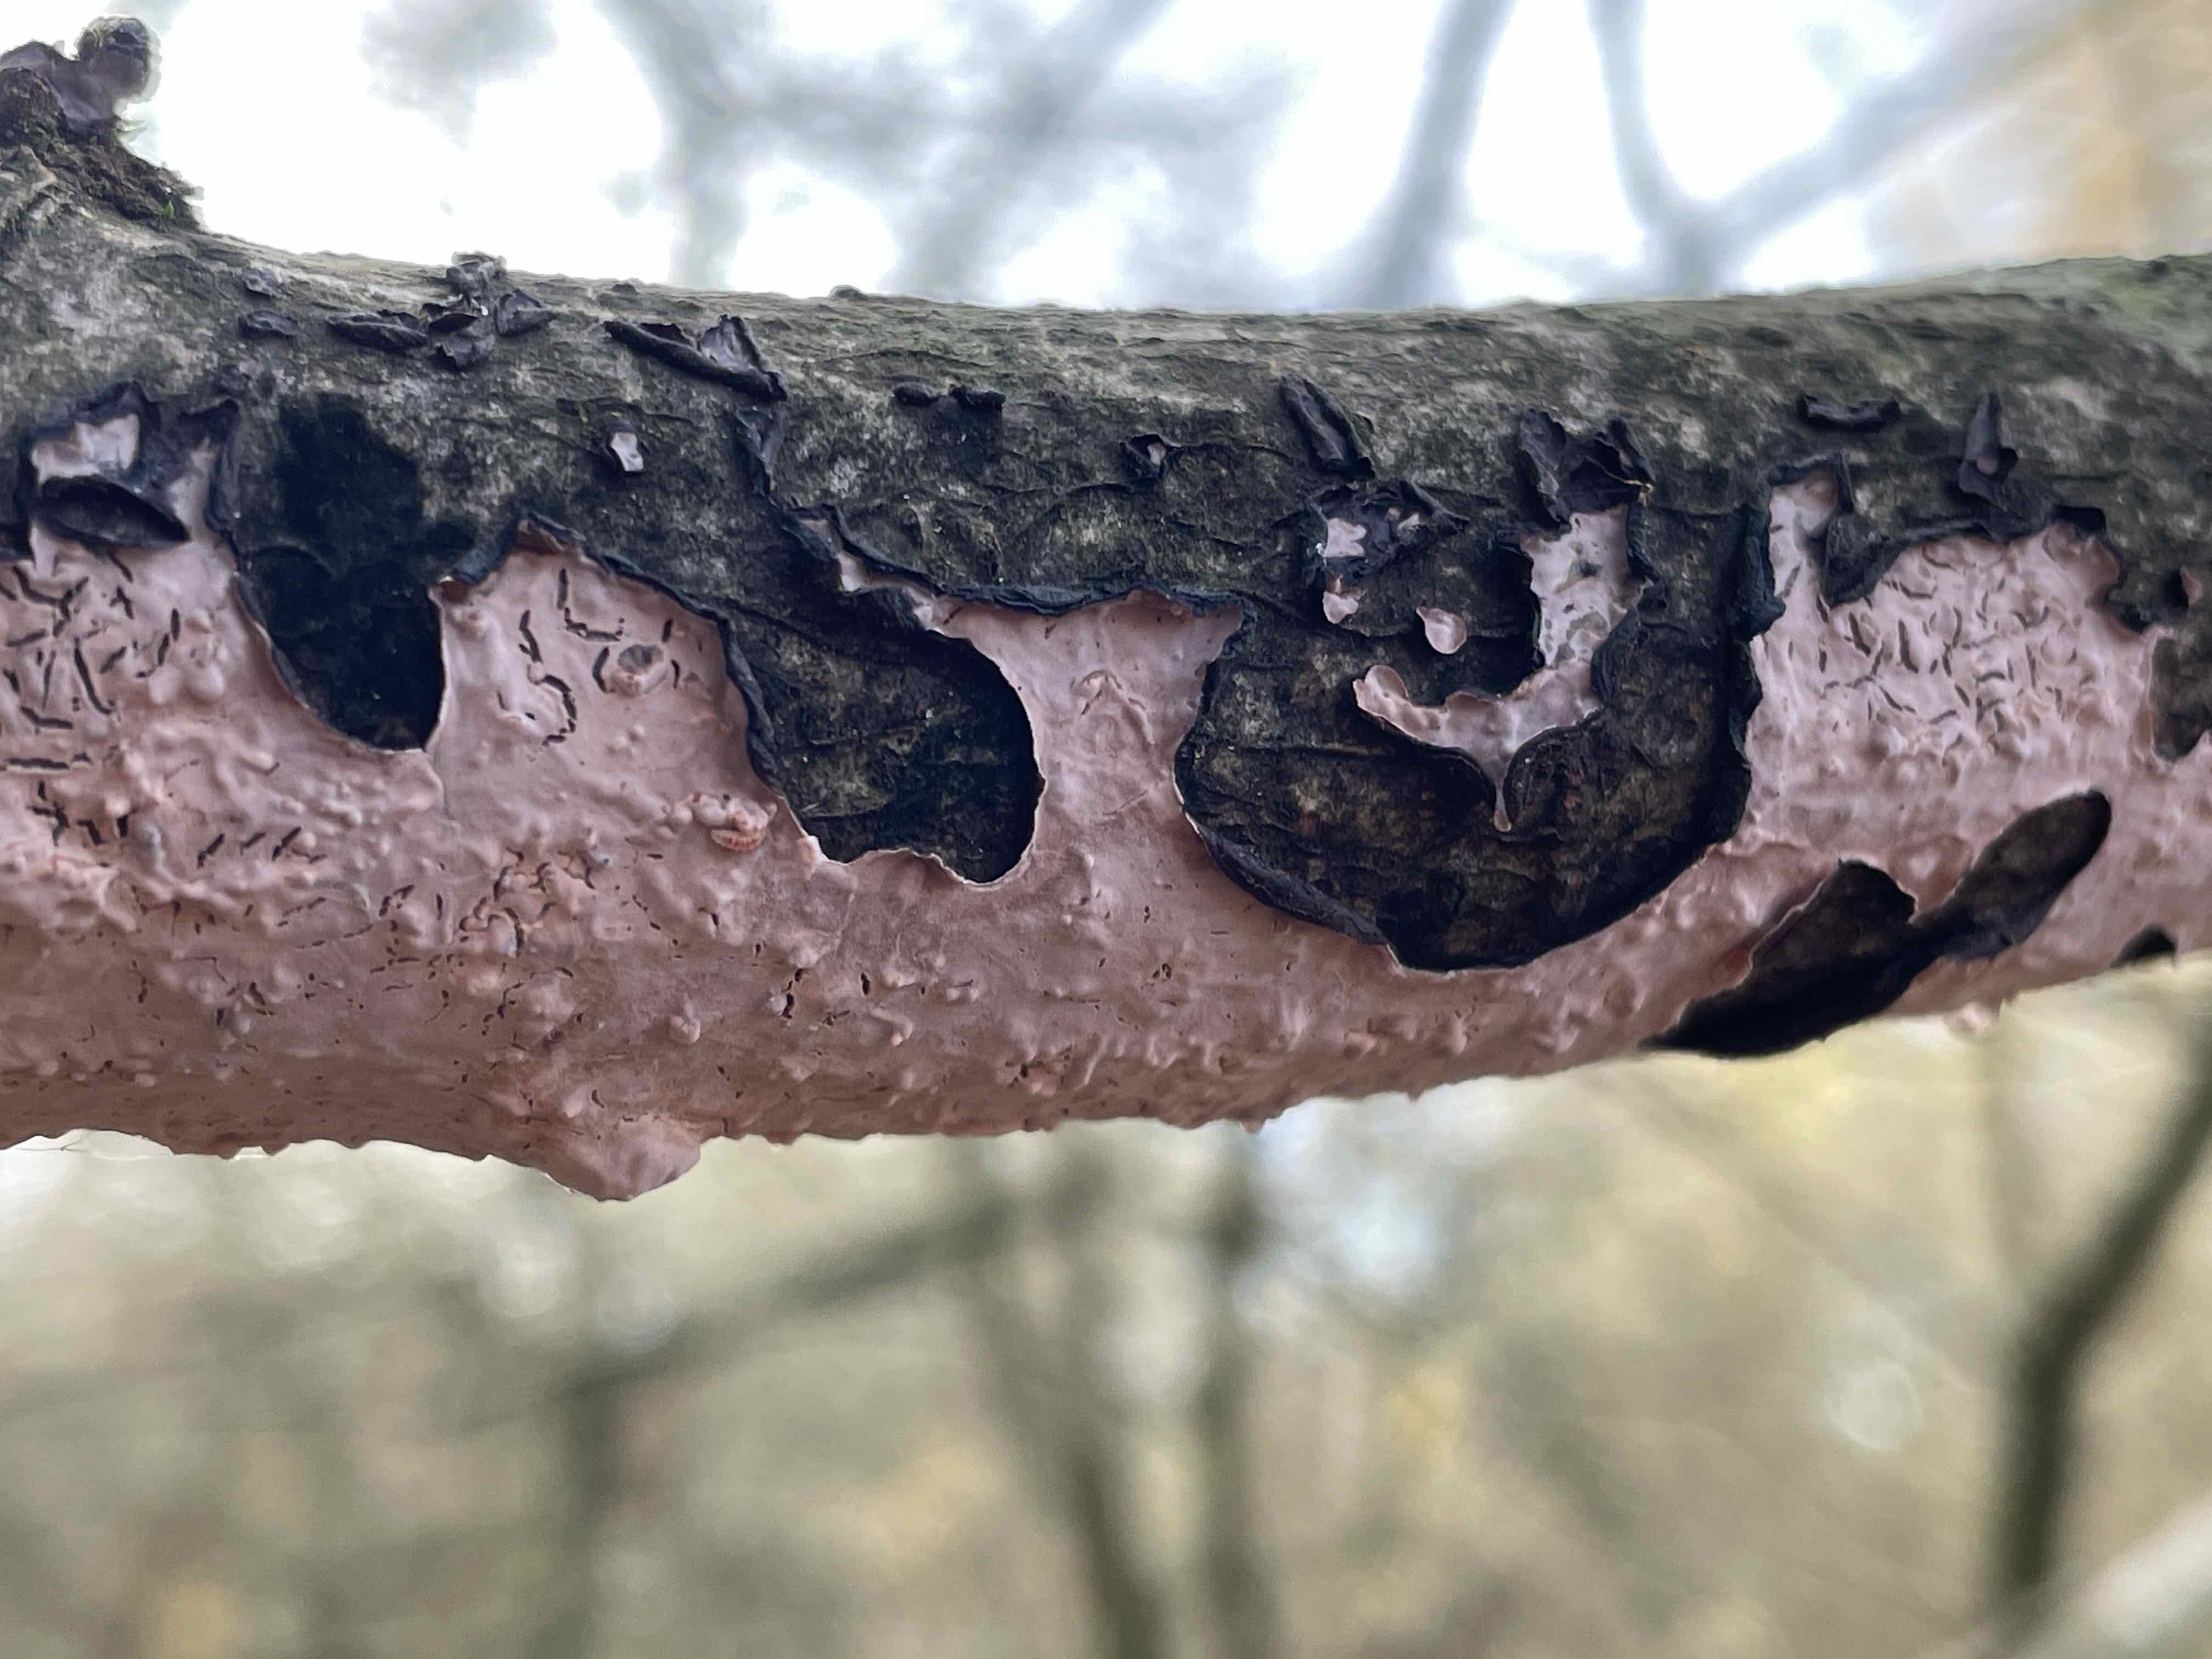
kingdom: Fungi
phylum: Basidiomycota
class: Agaricomycetes
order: Russulales
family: Peniophoraceae
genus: Peniophora
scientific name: Peniophora quercina
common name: ege-voksskind
